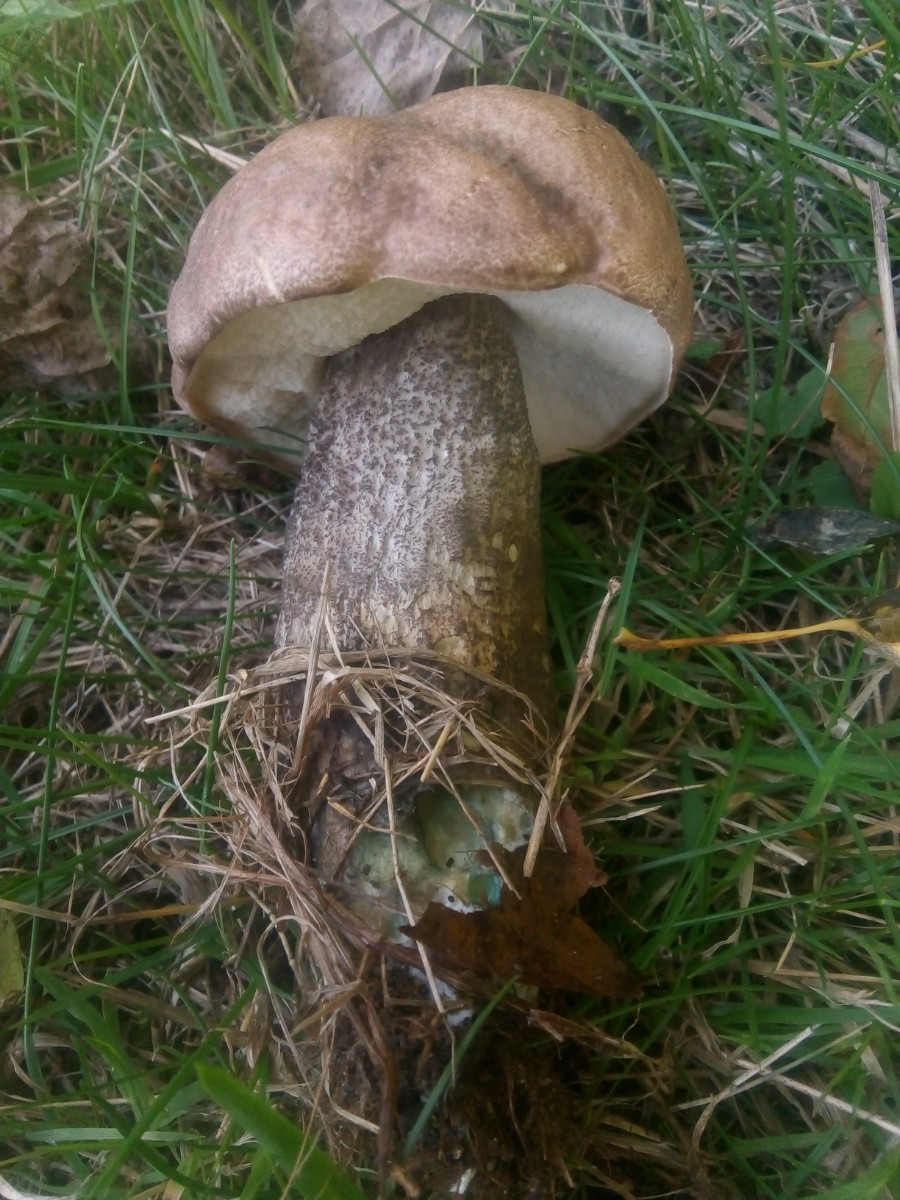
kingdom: Fungi
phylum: Basidiomycota
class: Agaricomycetes
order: Boletales
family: Boletaceae
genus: Leccinum
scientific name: Leccinum duriusculum
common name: poppel-skælrørhat
